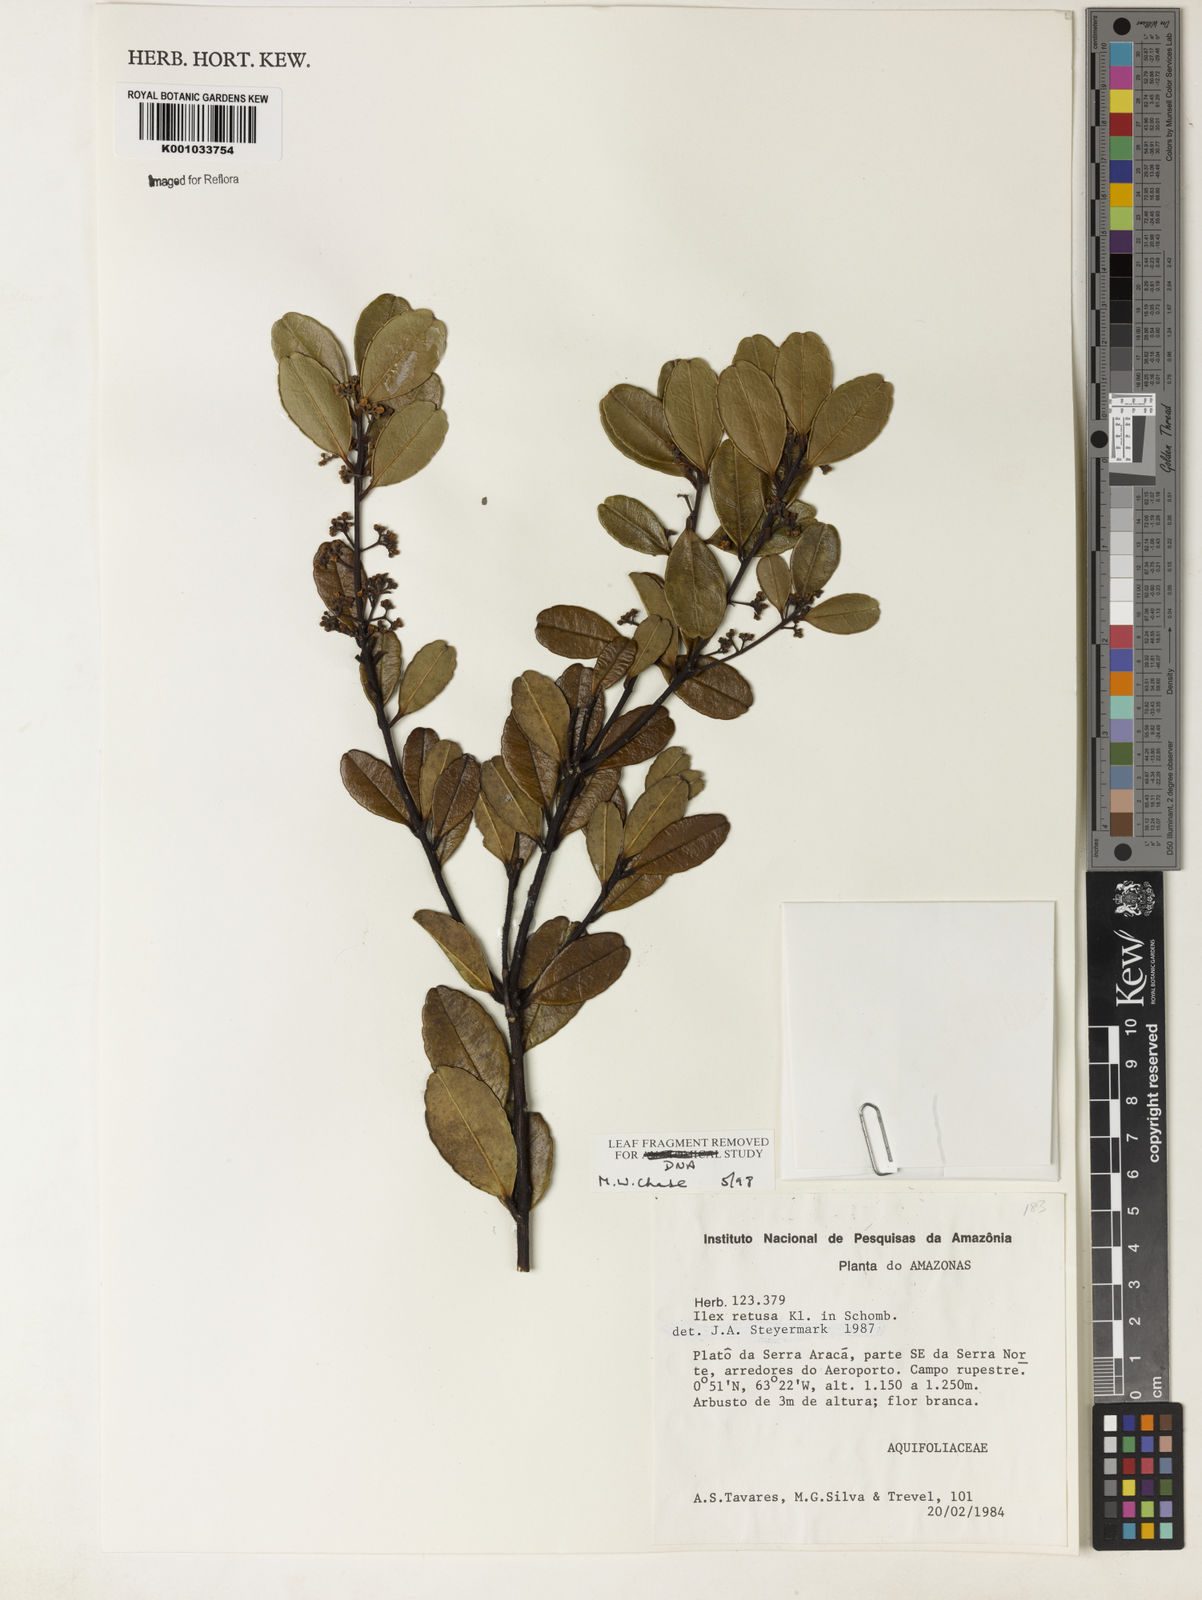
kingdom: Plantae
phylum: Tracheophyta
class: Magnoliopsida
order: Aquifoliales
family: Aquifoliaceae
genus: Ilex
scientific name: Ilex
